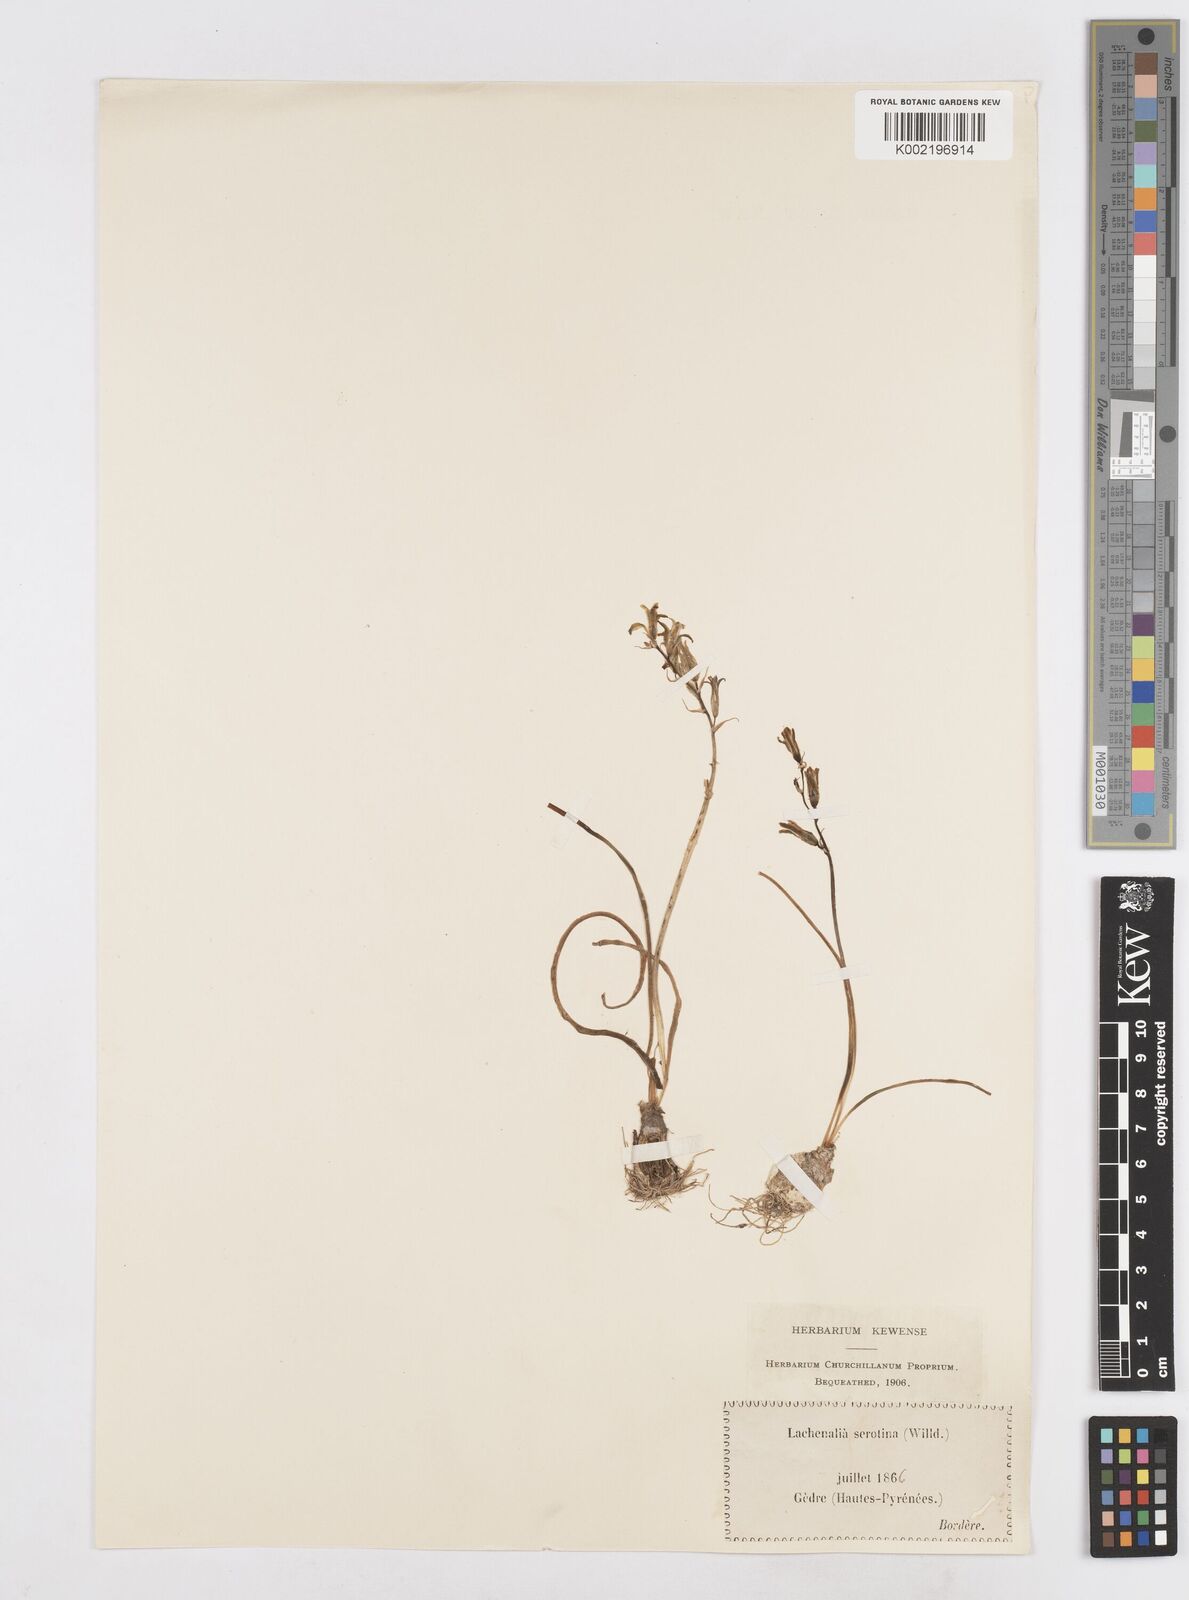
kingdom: Plantae
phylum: Tracheophyta
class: Liliopsida
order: Asparagales
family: Asparagaceae
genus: Dipcadi
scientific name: Dipcadi serotinum
